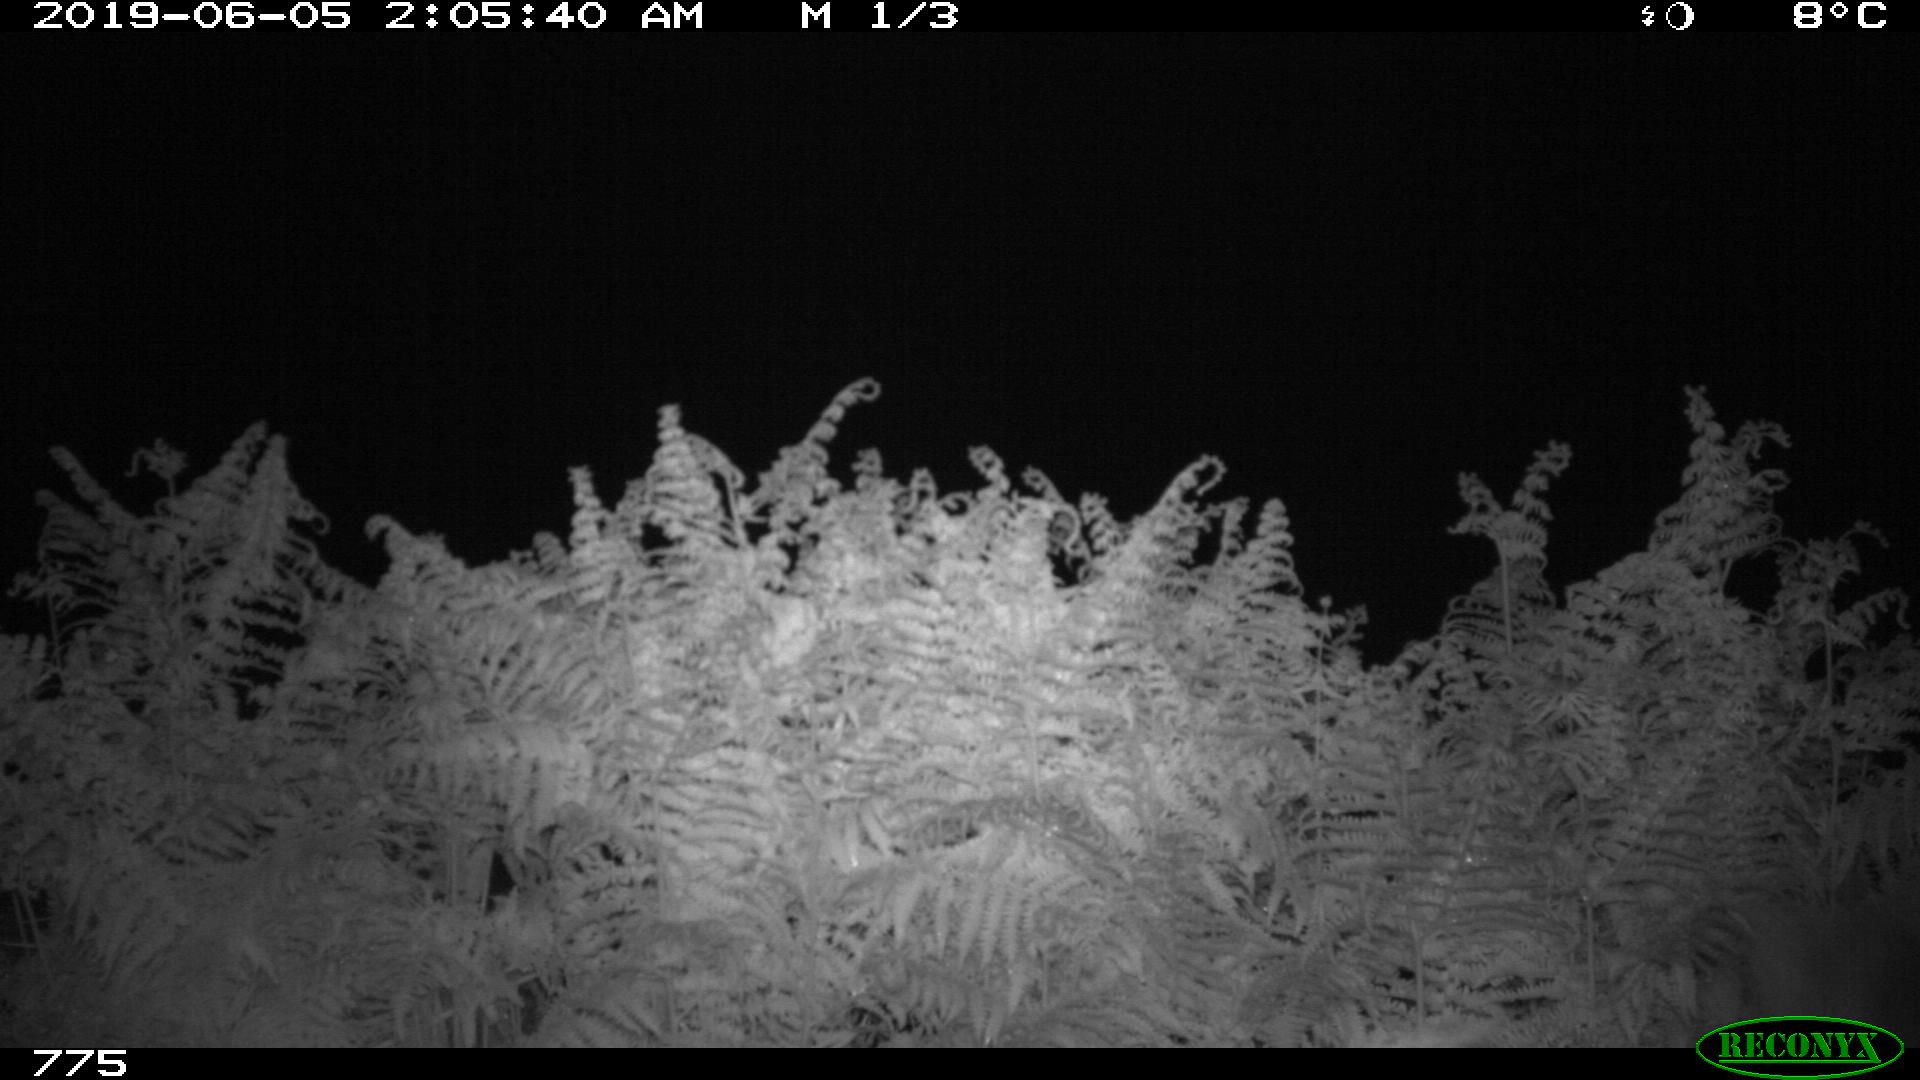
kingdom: Animalia
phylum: Chordata
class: Mammalia
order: Artiodactyla
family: Suidae
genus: Sus
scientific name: Sus scrofa
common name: Wild boar
